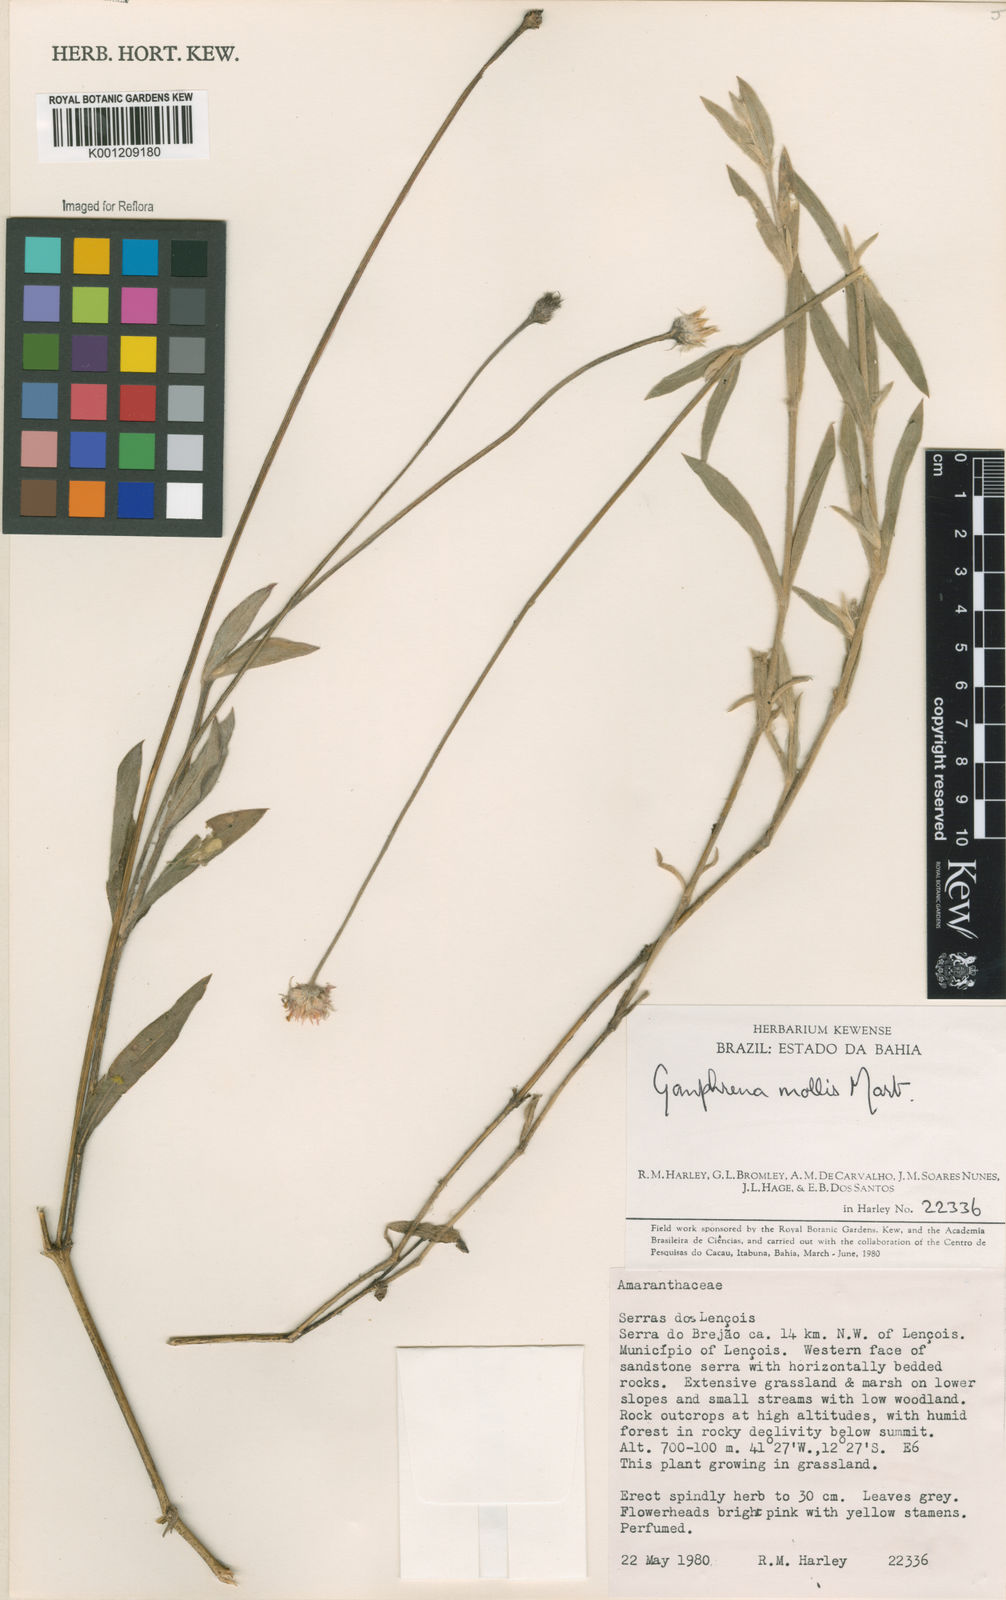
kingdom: Plantae
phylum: Tracheophyta
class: Magnoliopsida
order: Caryophyllales
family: Amaranthaceae
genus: Gomphrena
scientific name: Gomphrena mollis
